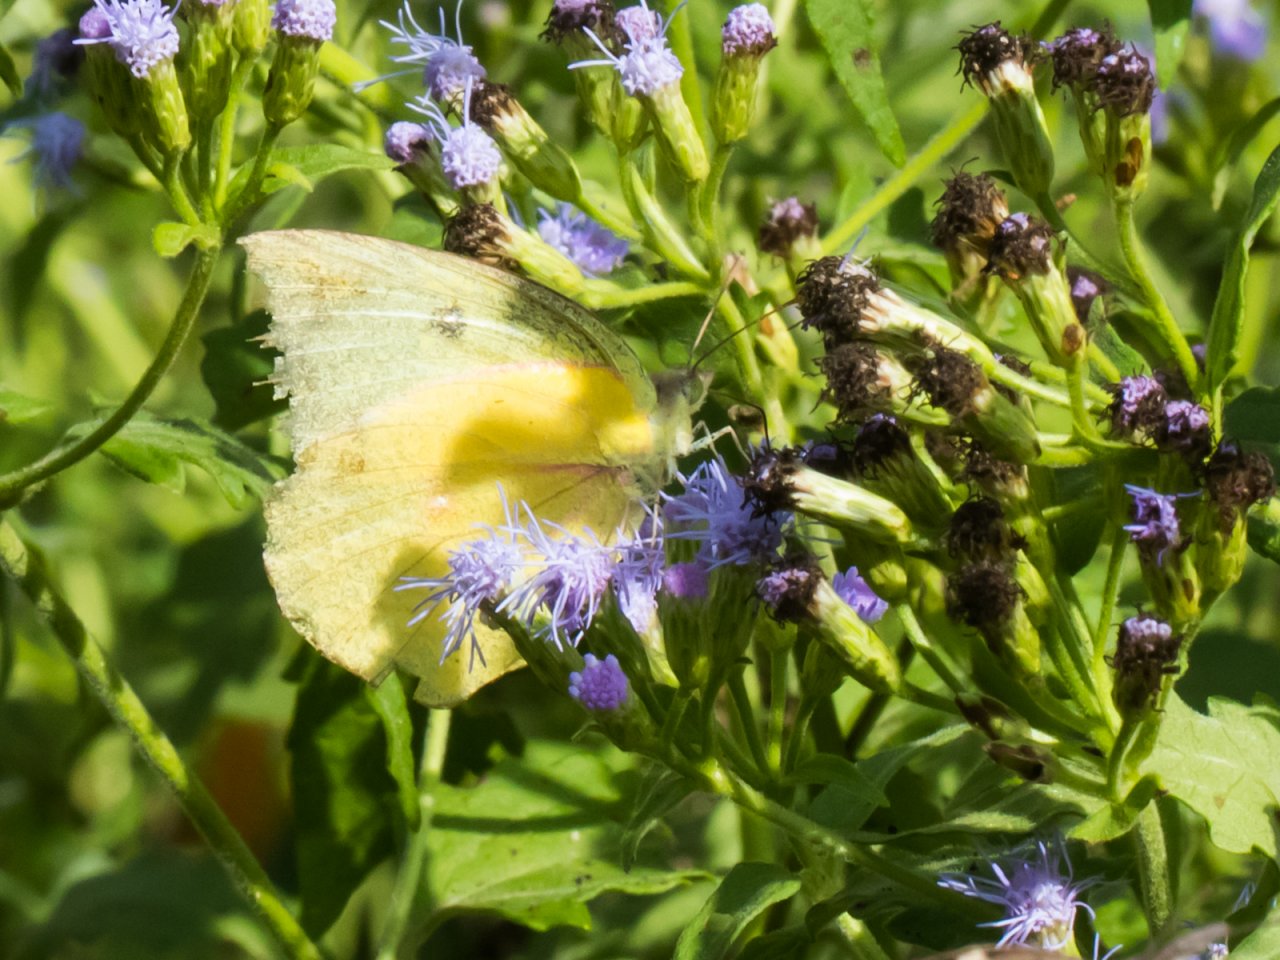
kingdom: Animalia
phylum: Arthropoda
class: Insecta
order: Lepidoptera
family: Pieridae
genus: Zerene
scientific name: Zerene cesonia
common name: Southern Dogface
